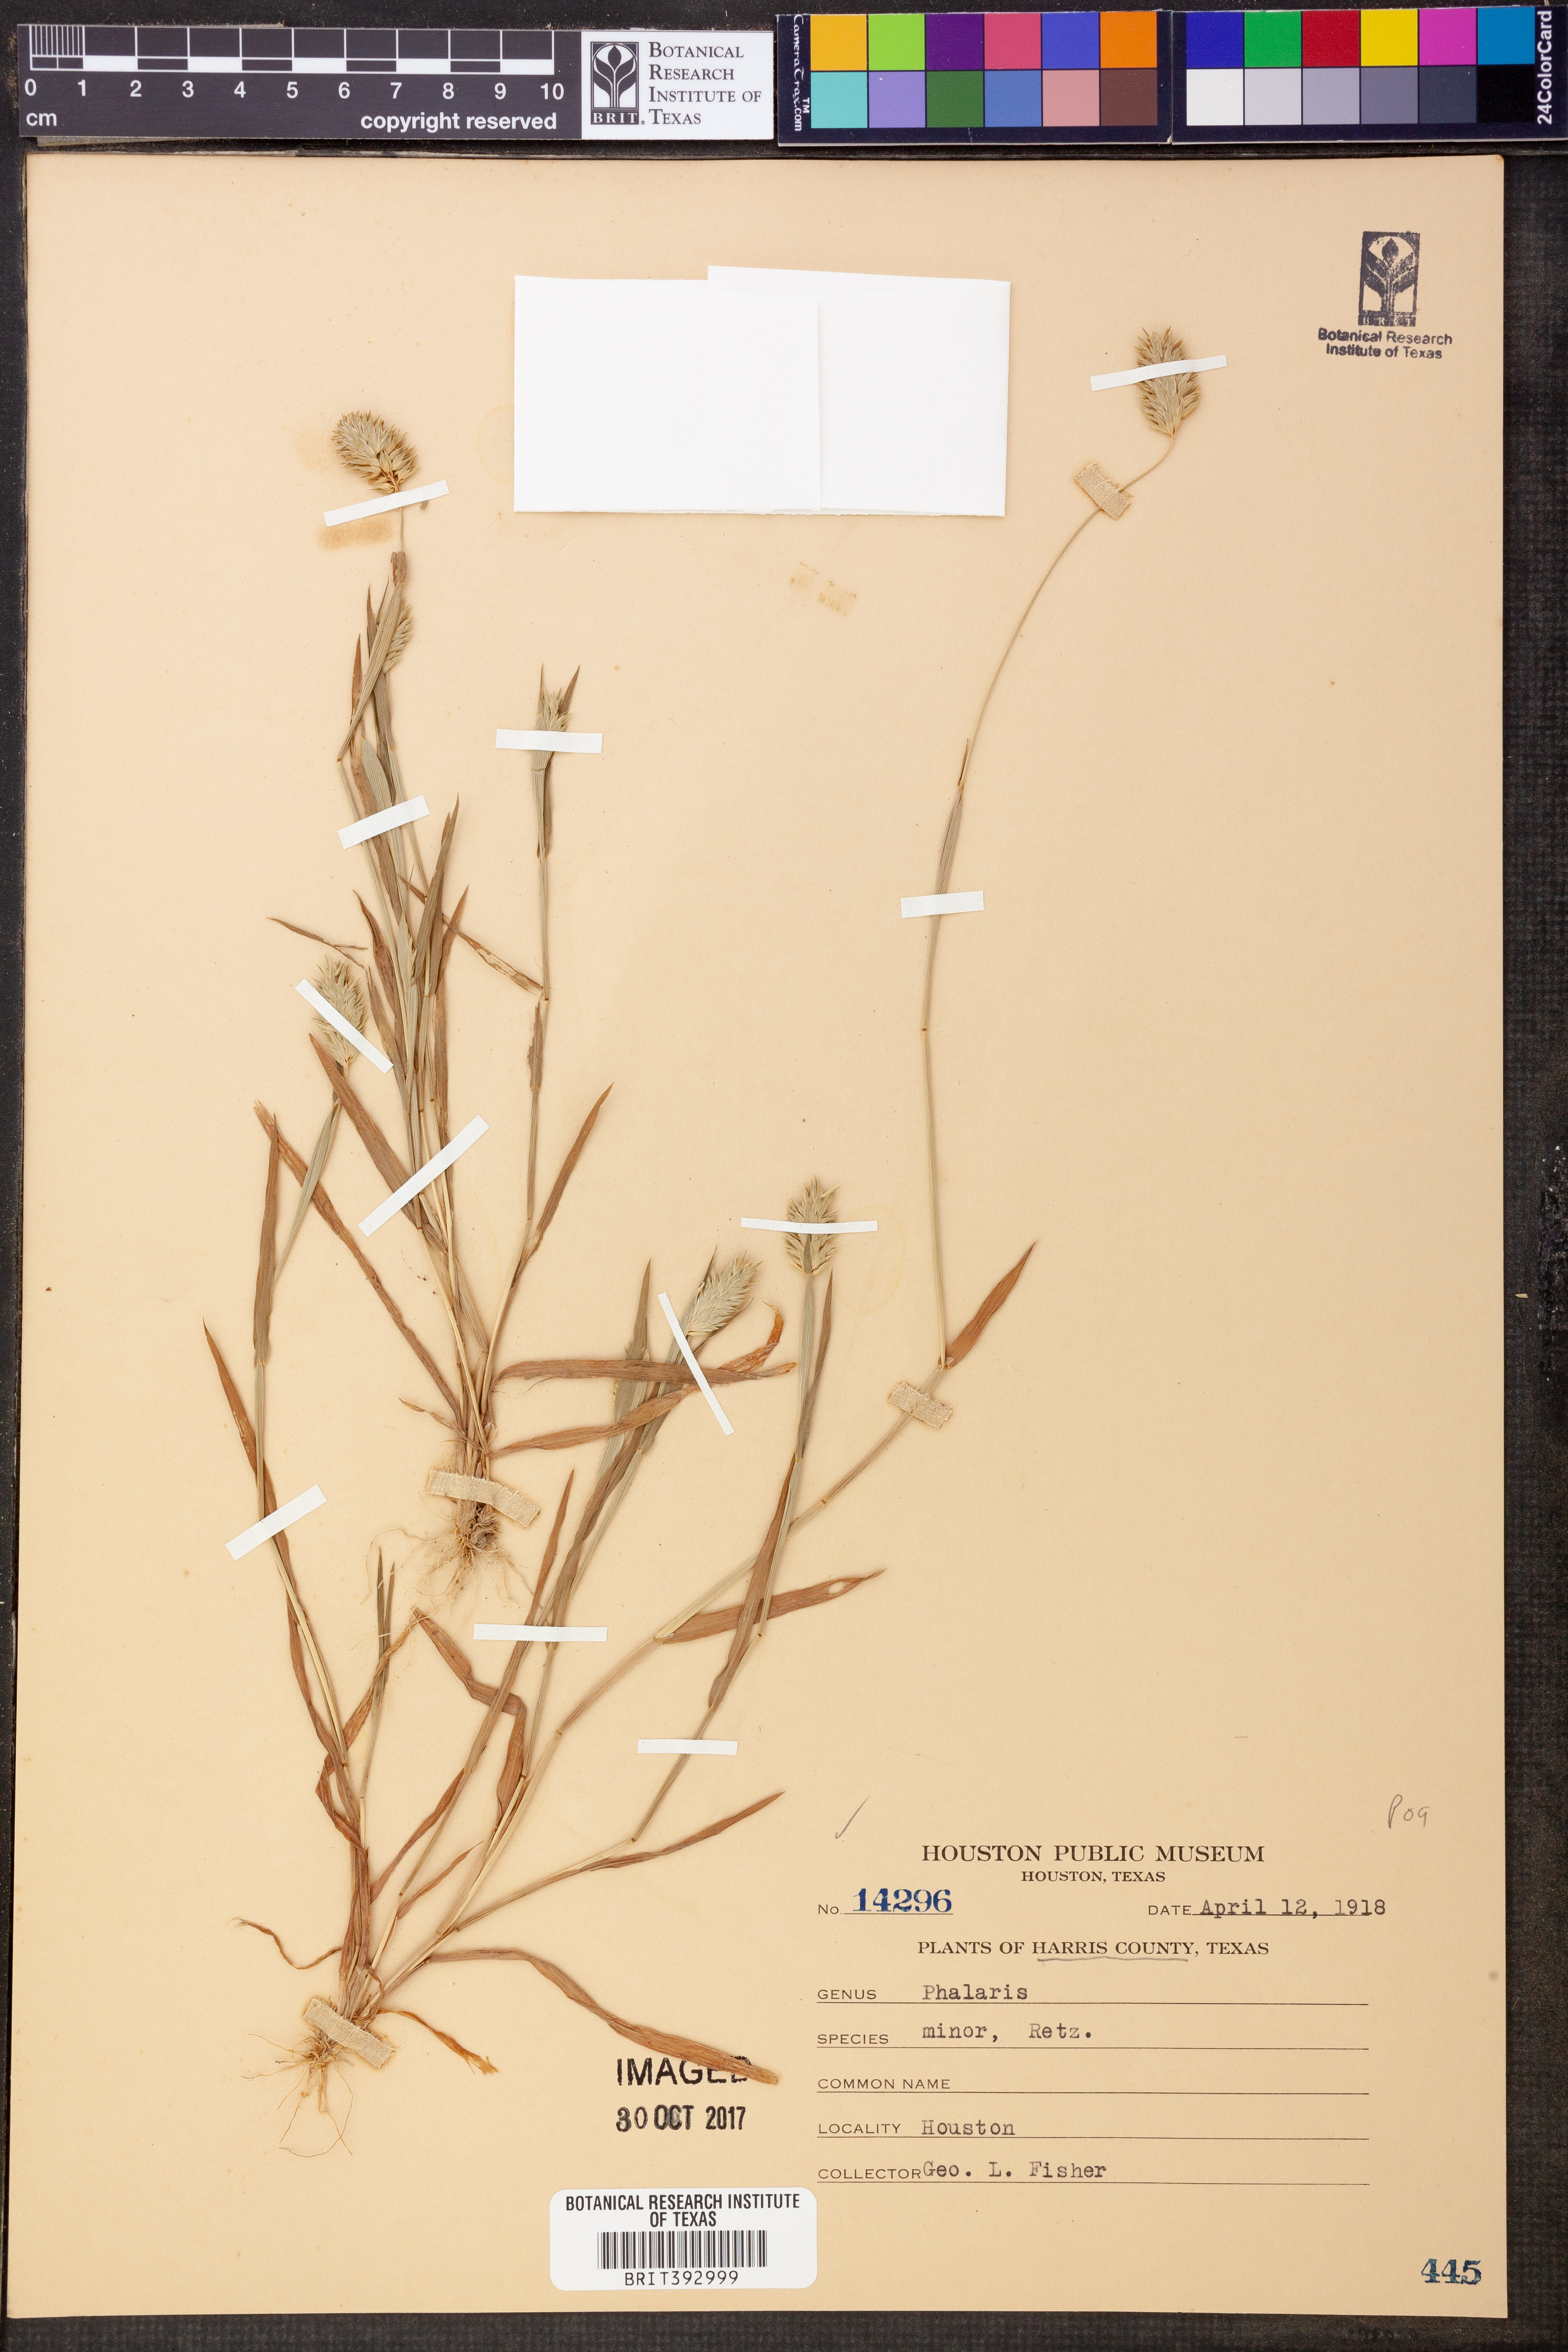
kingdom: Plantae
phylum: Tracheophyta
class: Liliopsida
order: Poales
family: Poaceae
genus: Phalaris
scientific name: Phalaris minor
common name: Littleseed canarygrass
